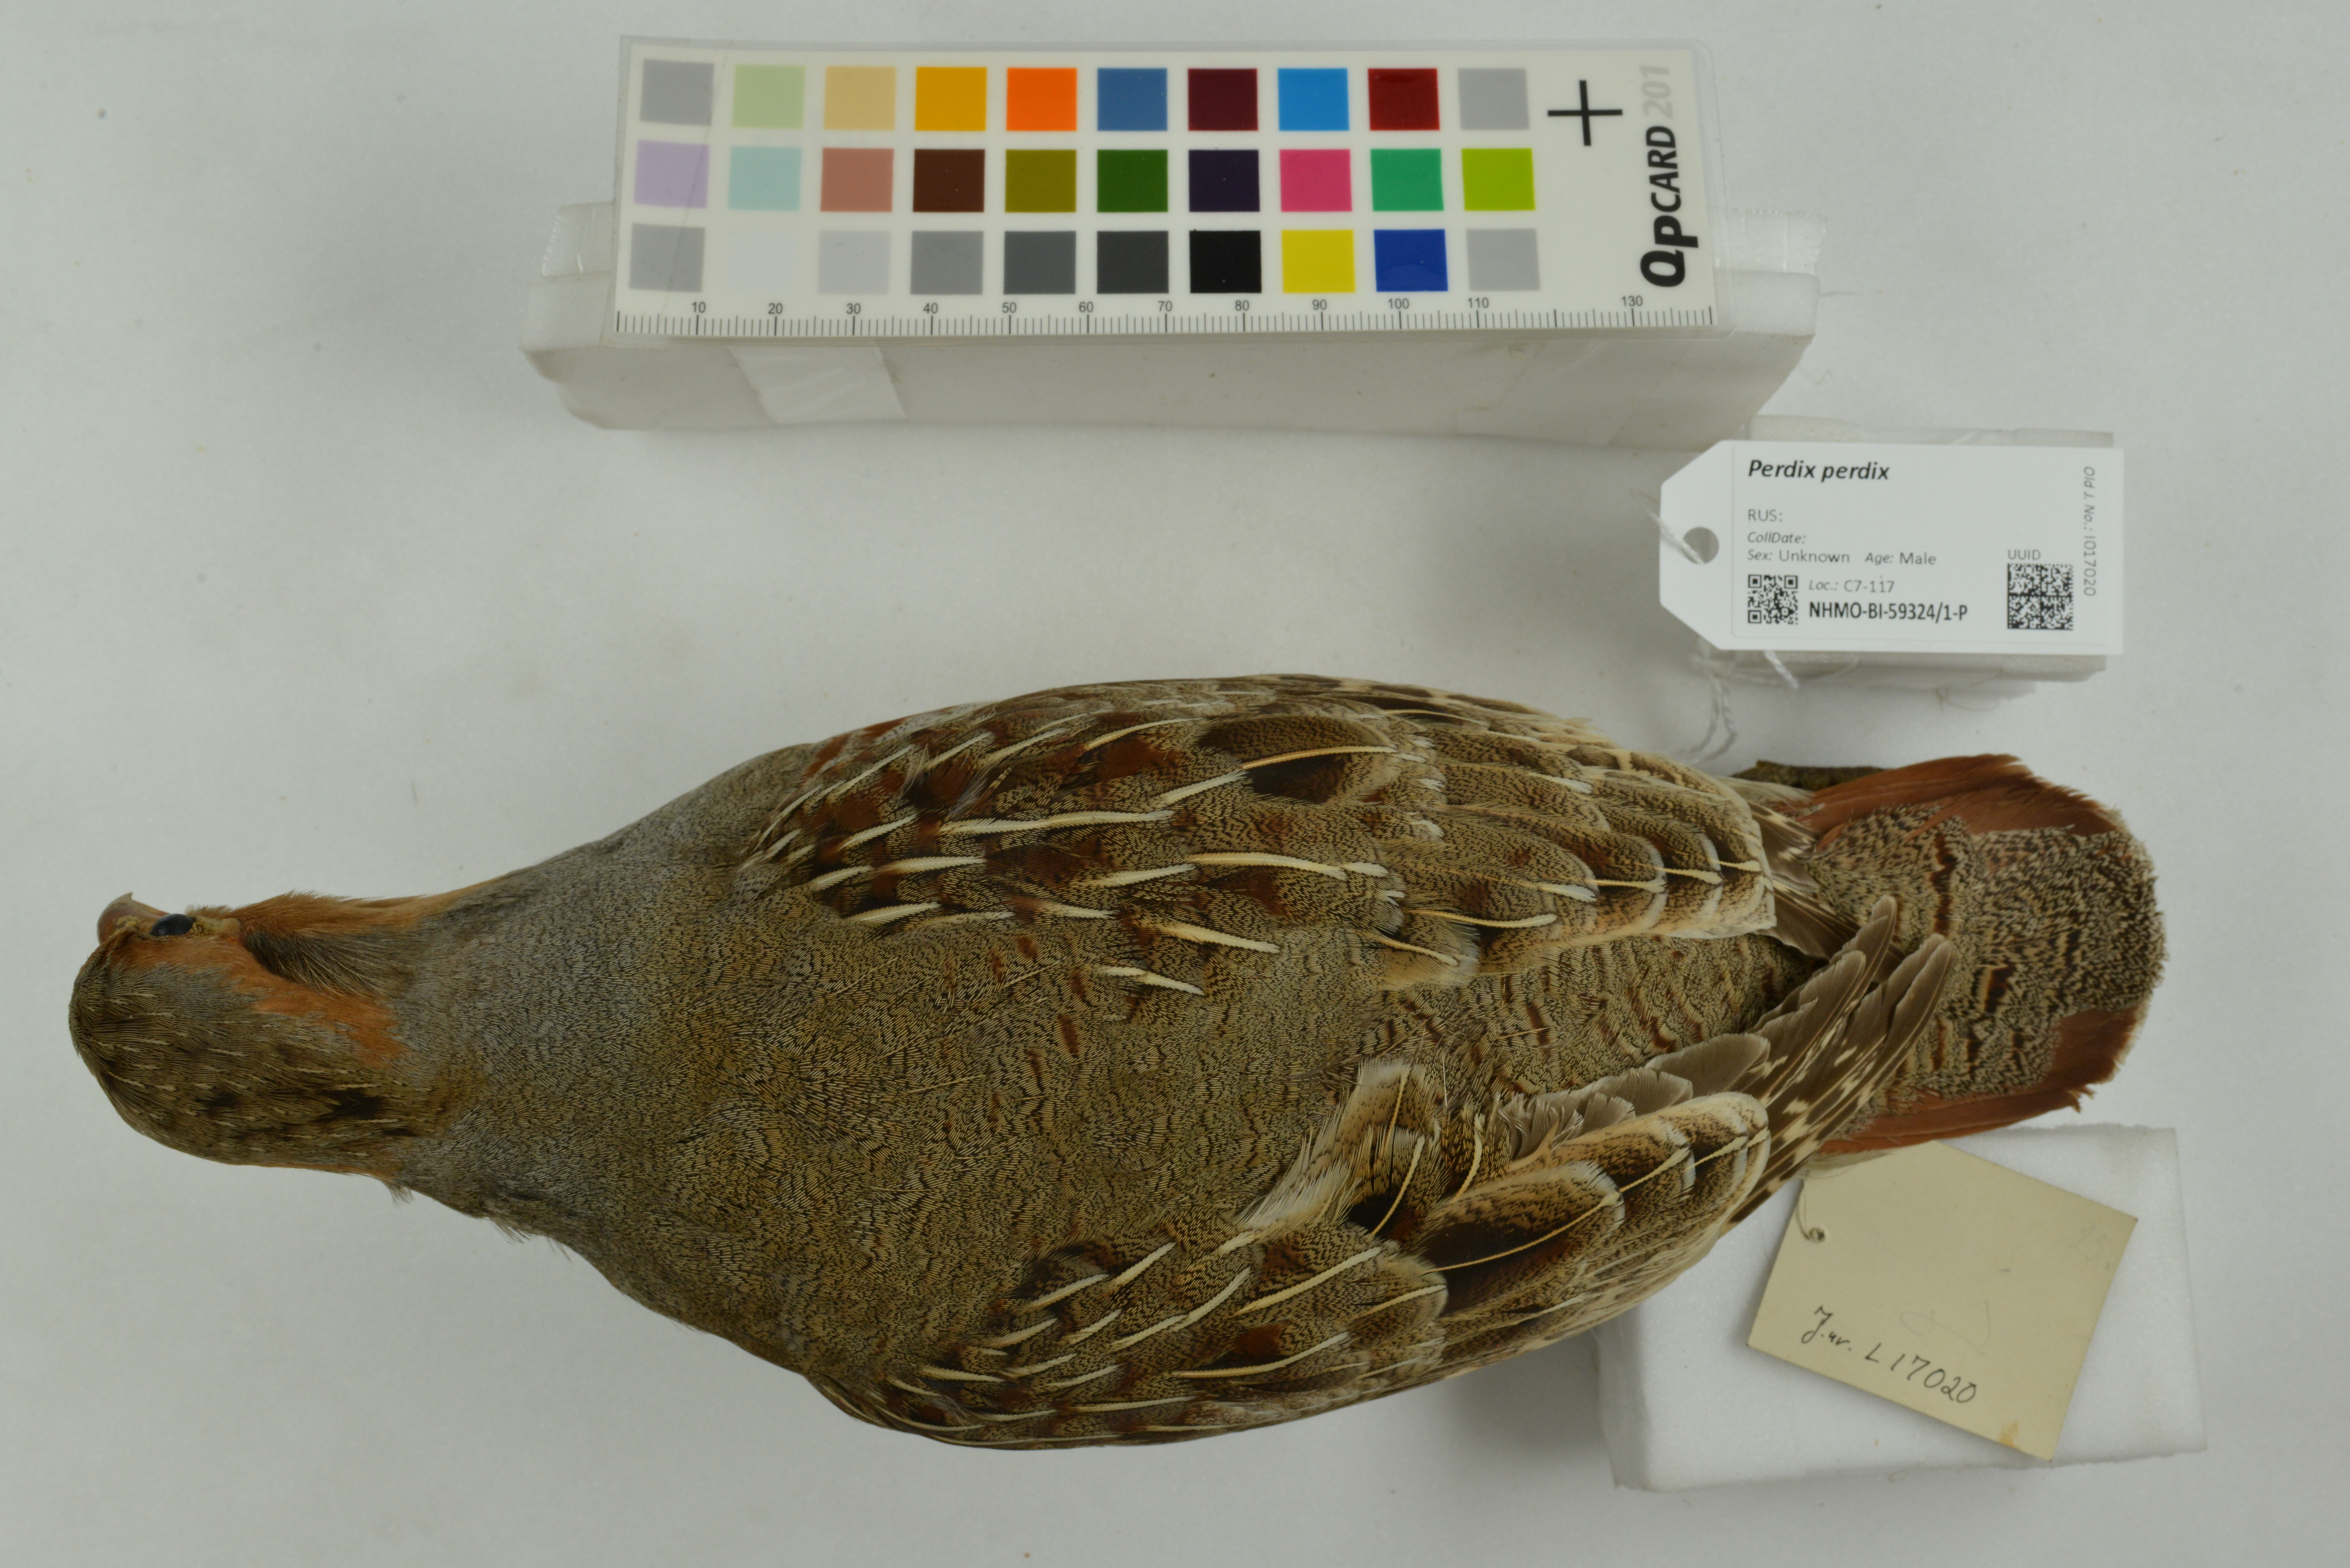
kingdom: Animalia
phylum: Chordata
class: Aves
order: Galliformes
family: Phasianidae
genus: Perdix
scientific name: Perdix perdix
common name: Grey partridge
